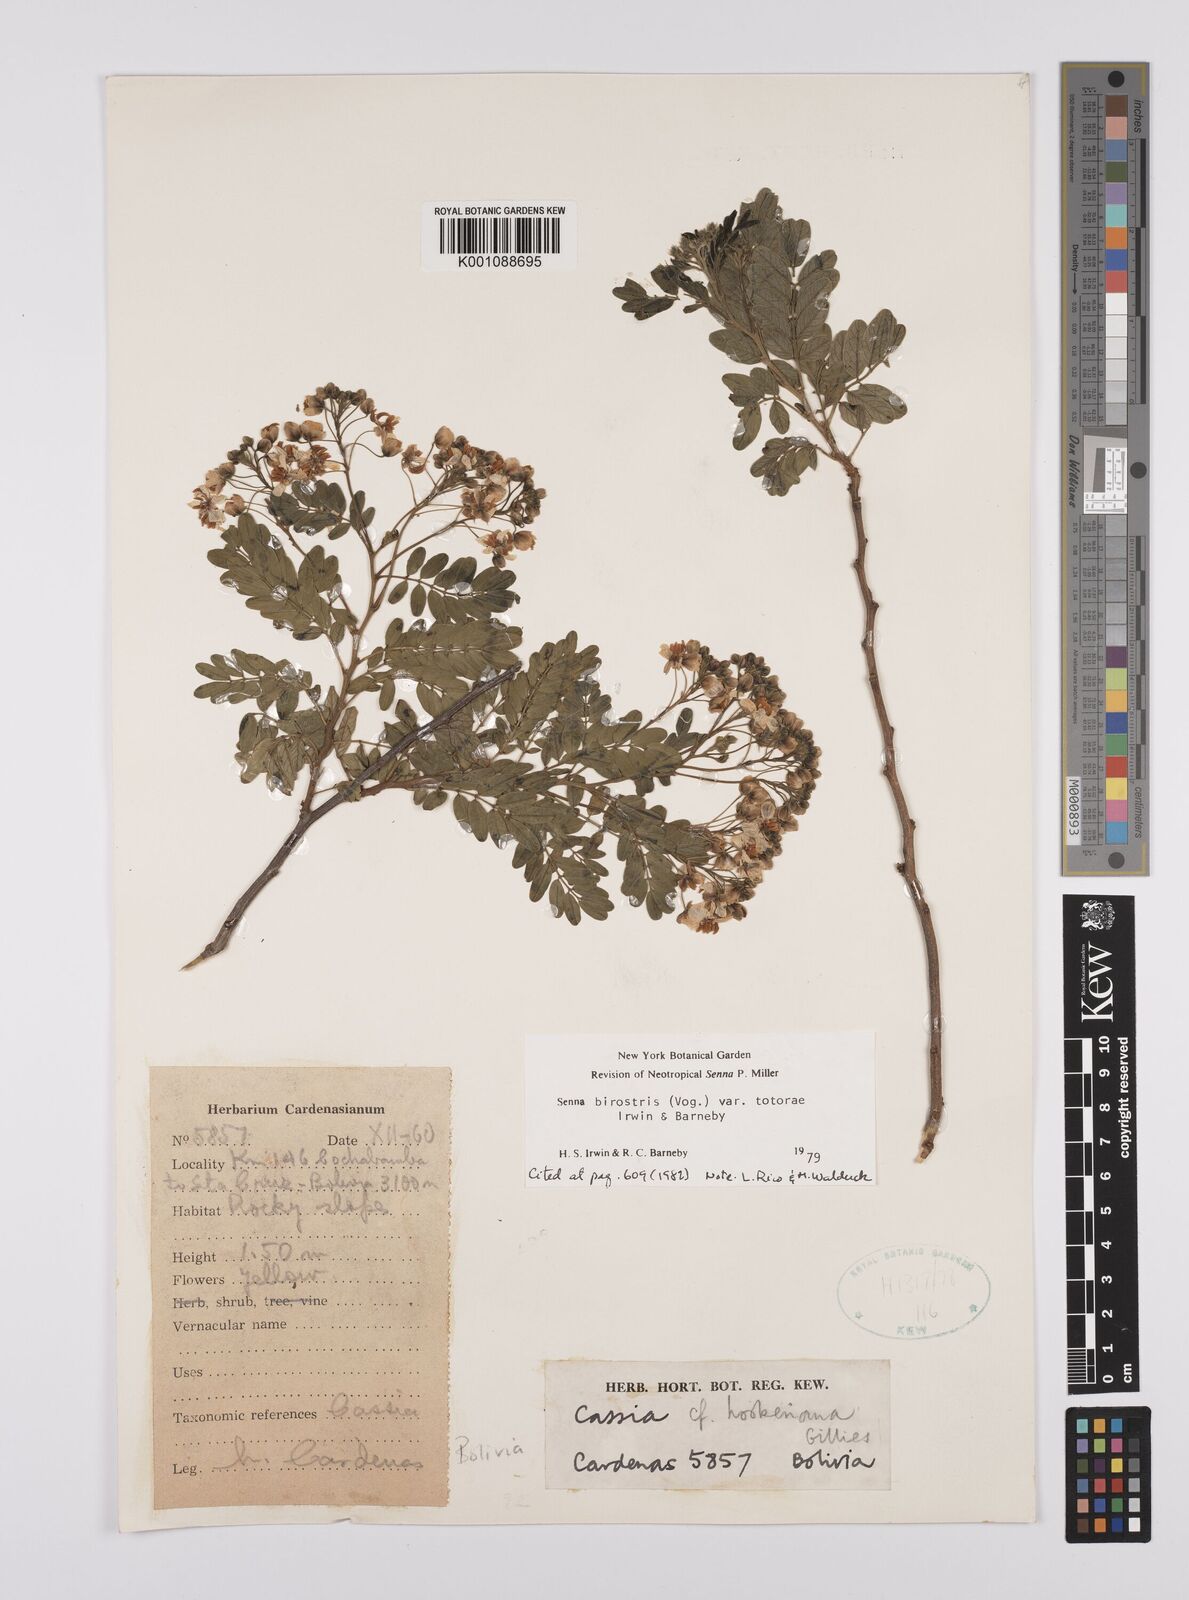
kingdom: Plantae
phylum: Tracheophyta
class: Magnoliopsida
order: Fabales
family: Fabaceae
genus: Senna
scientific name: Senna birostris
